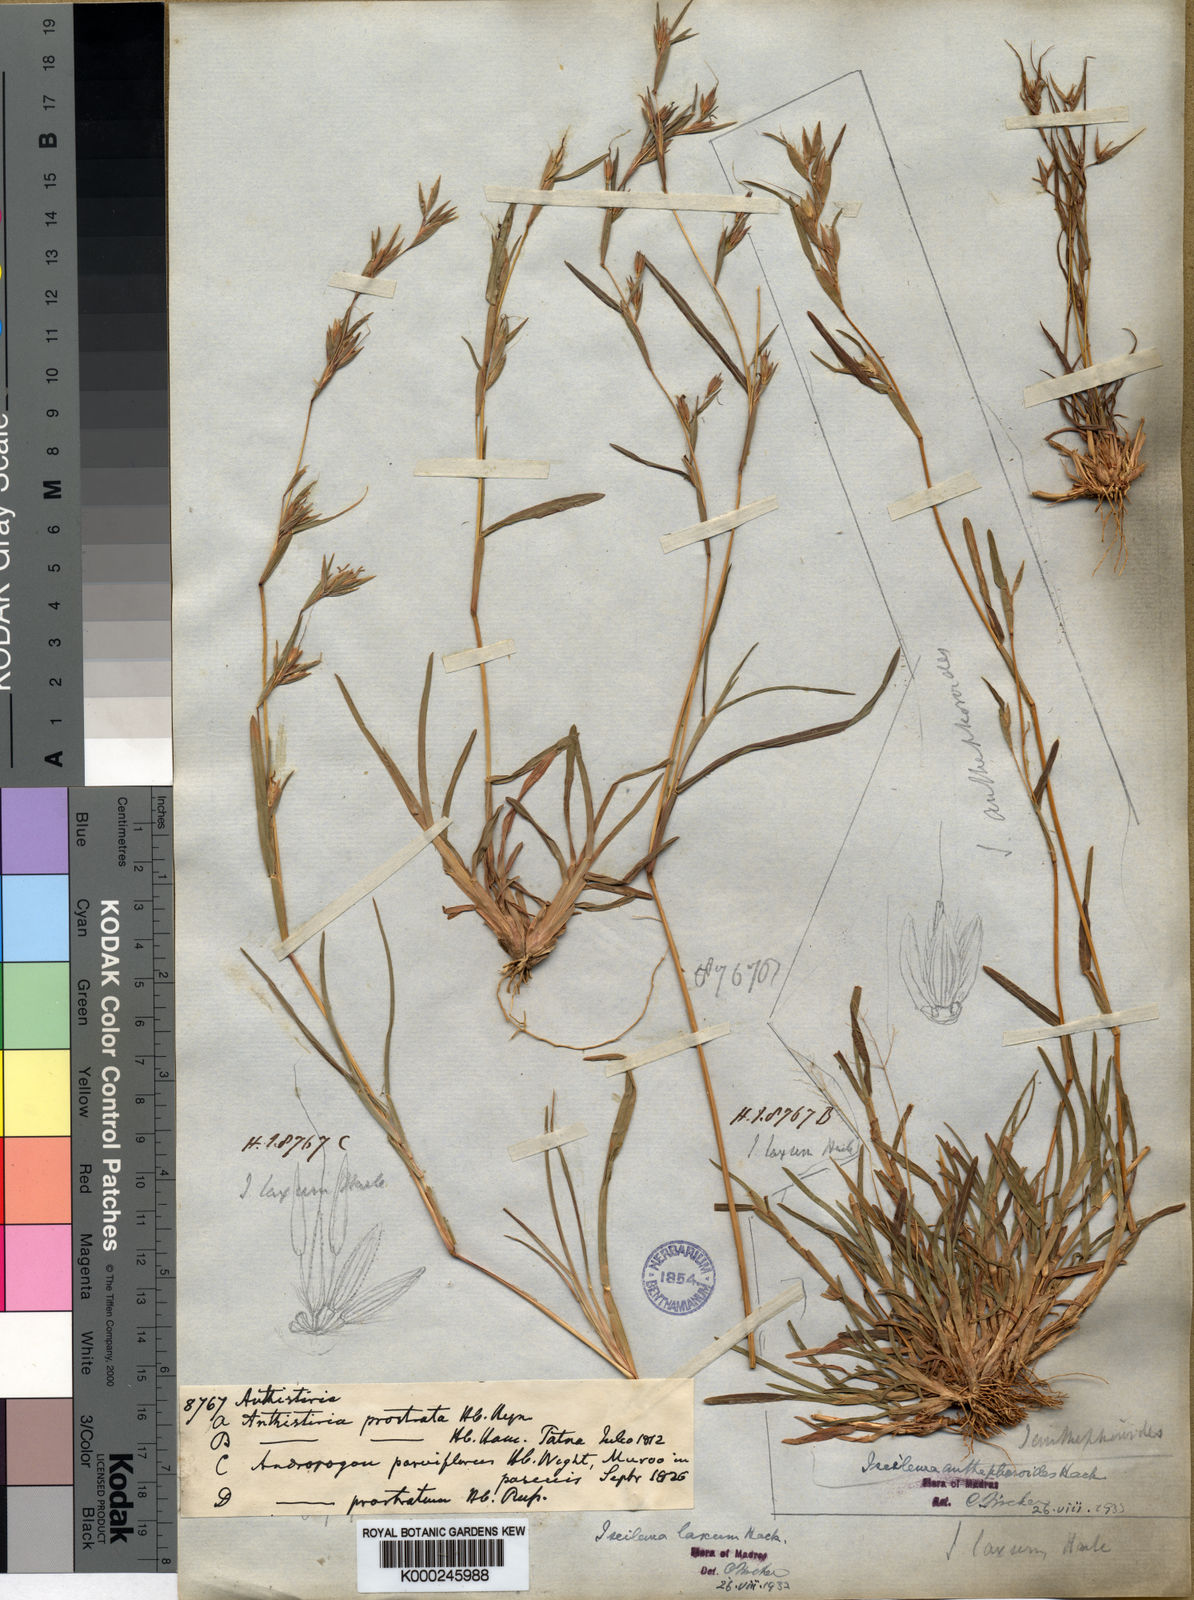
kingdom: Plantae
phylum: Tracheophyta
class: Liliopsida
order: Poales
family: Poaceae
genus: Iseilema
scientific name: Iseilema prostratum
